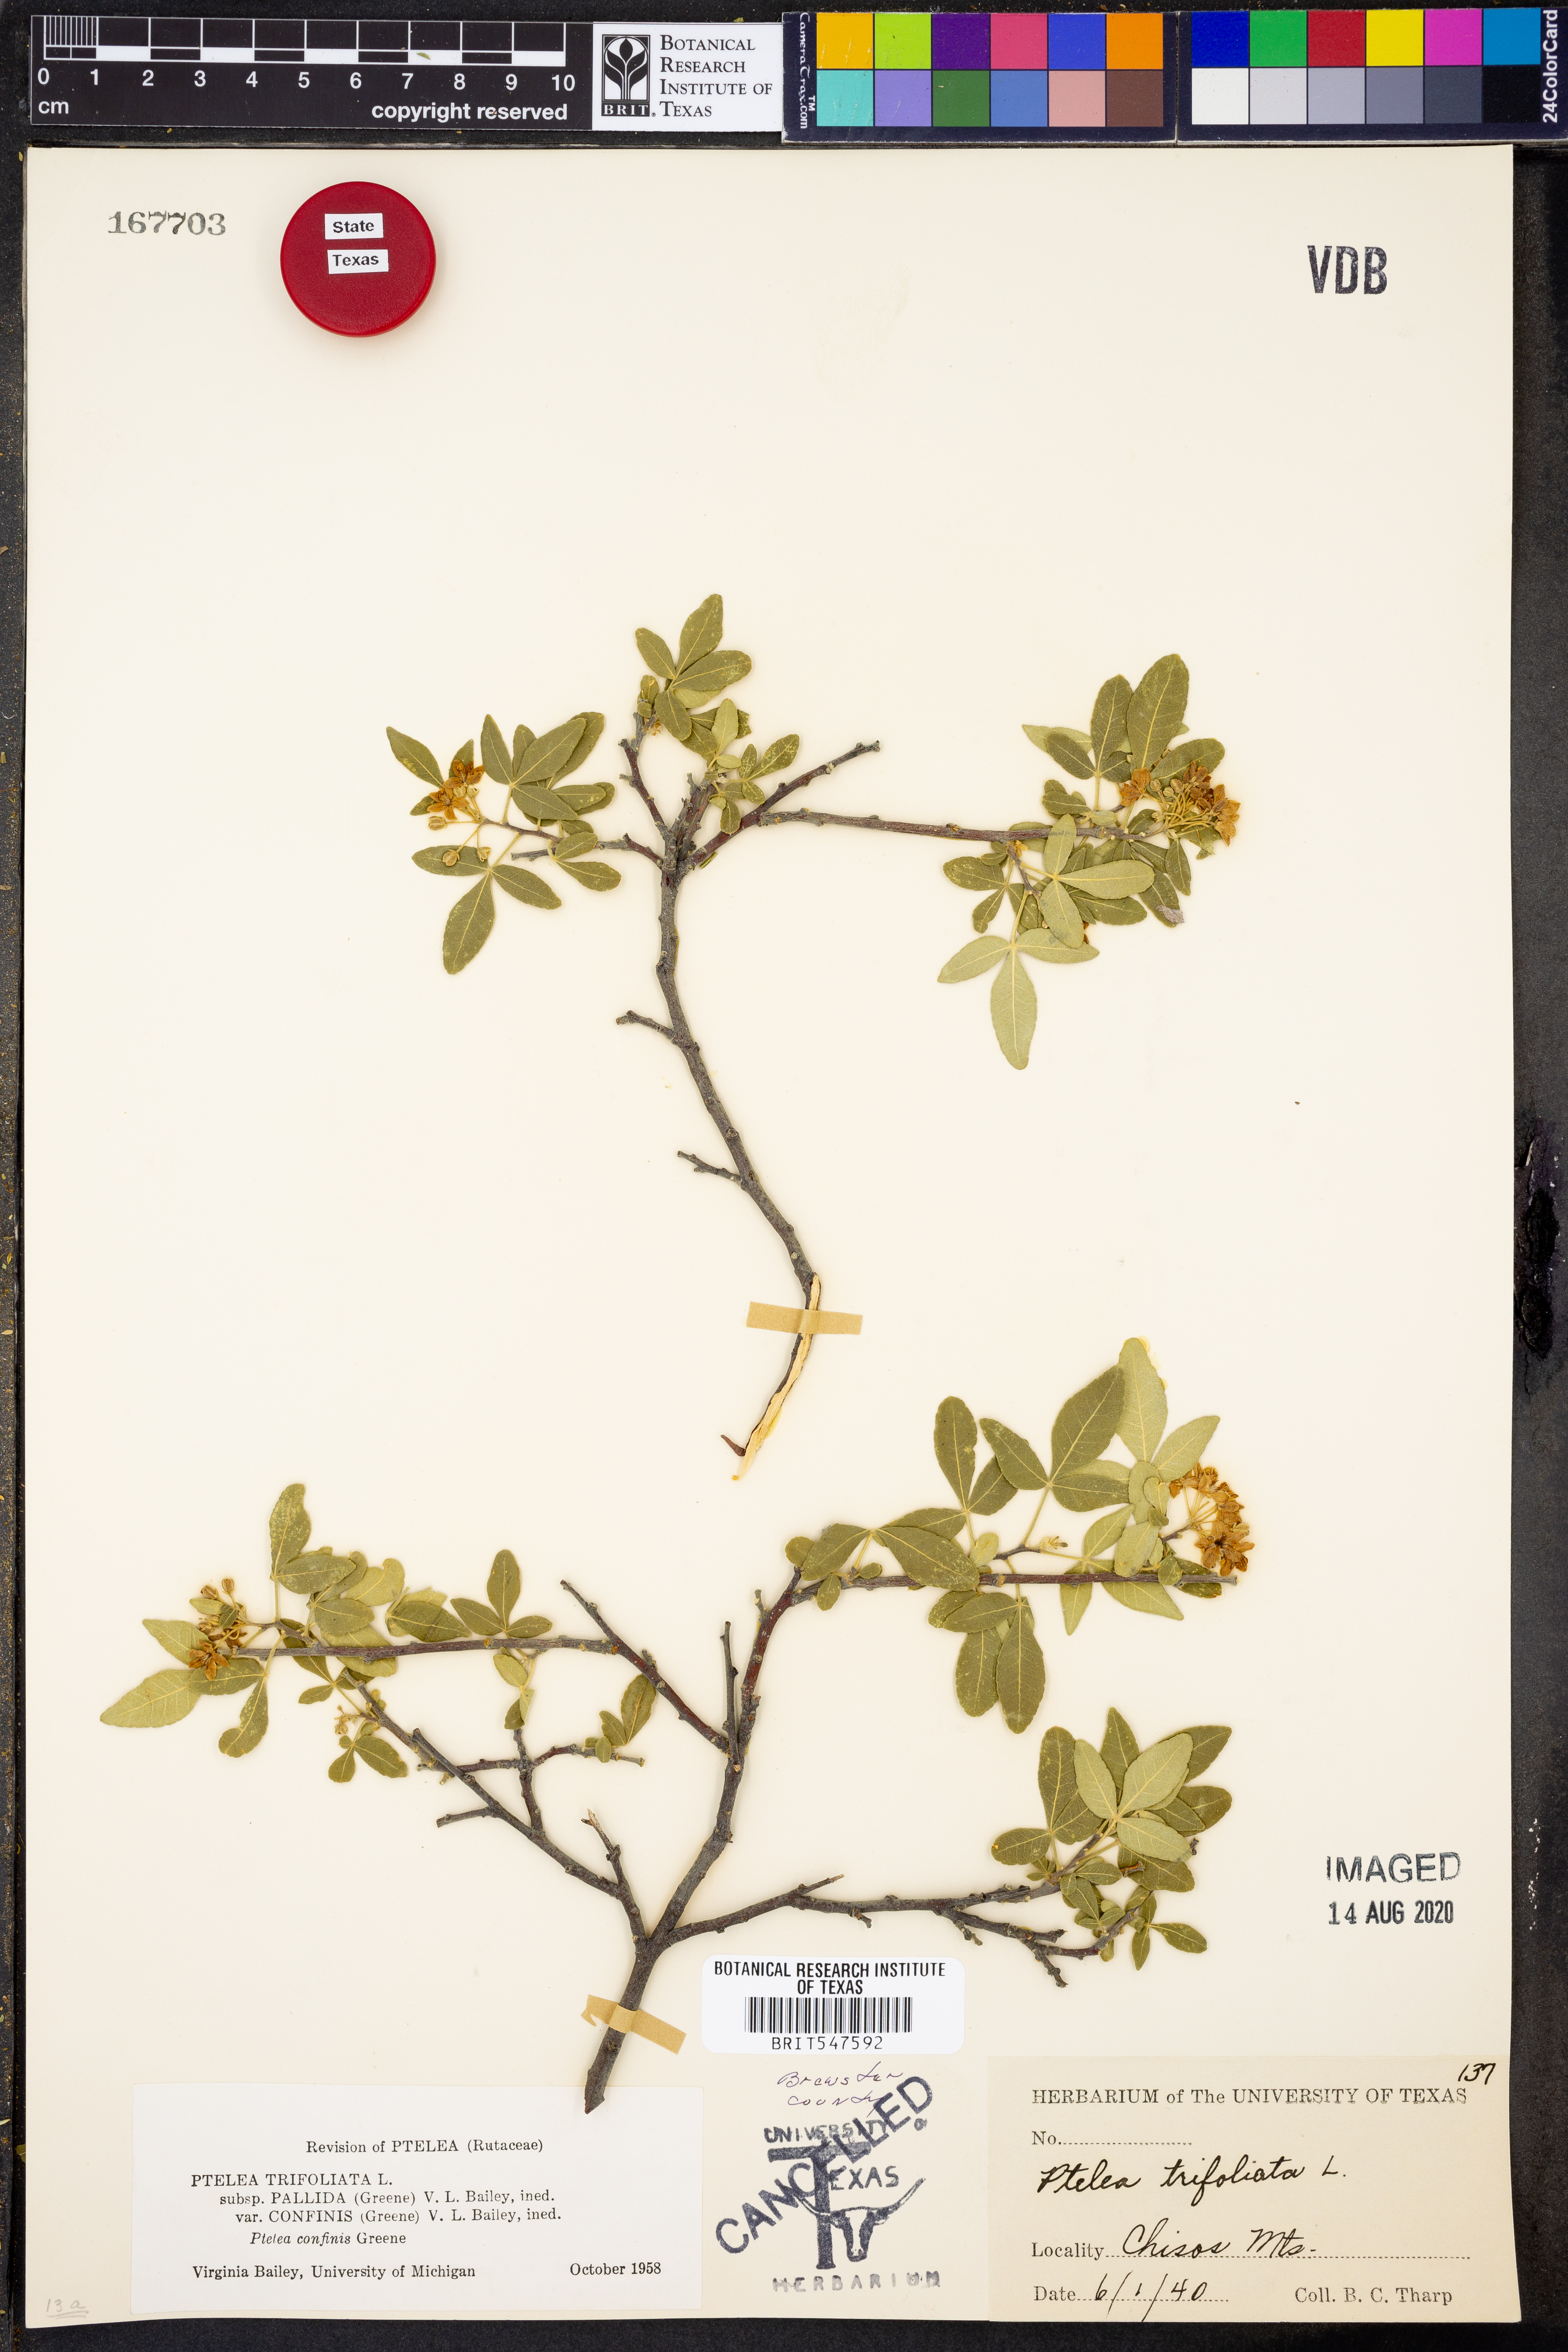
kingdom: Plantae
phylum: Tracheophyta
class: Magnoliopsida
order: Sapindales
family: Rutaceae
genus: Ptelea
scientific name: Ptelea trifoliata
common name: Common hop-tree
